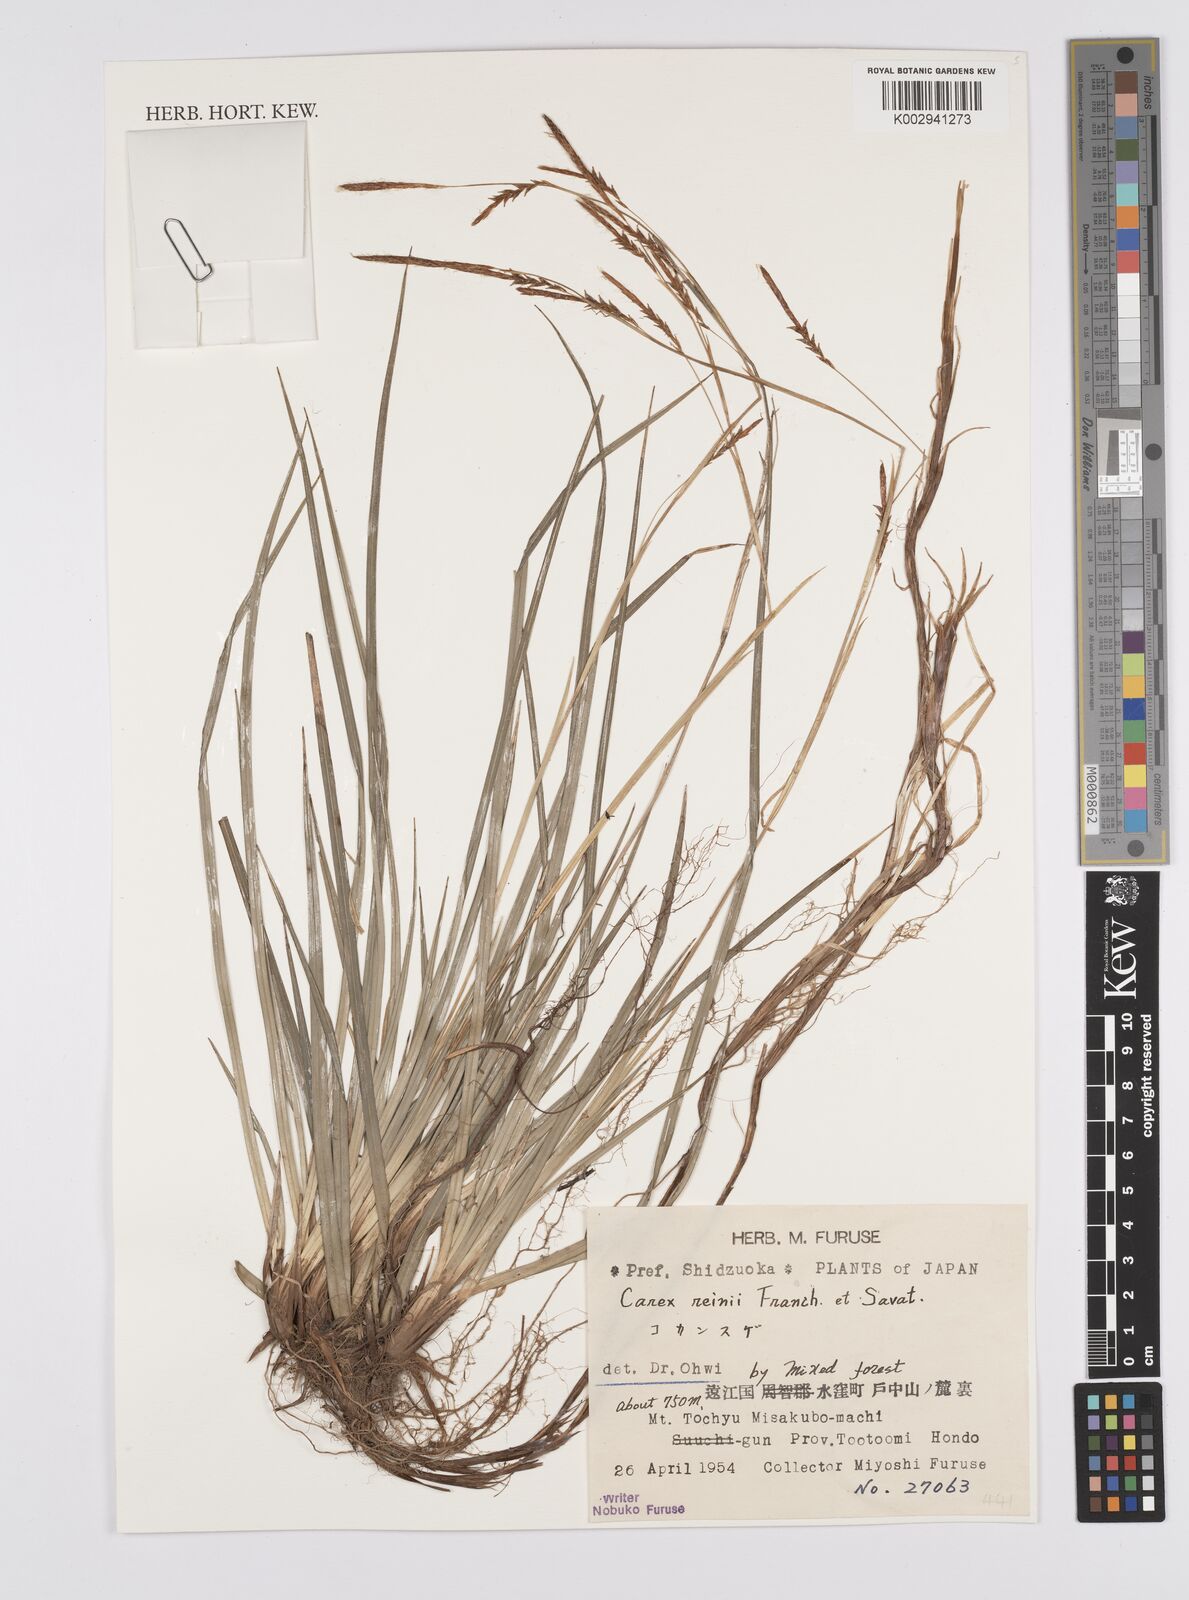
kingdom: Plantae
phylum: Tracheophyta
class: Liliopsida
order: Poales
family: Cyperaceae
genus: Carex
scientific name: Carex reinii
